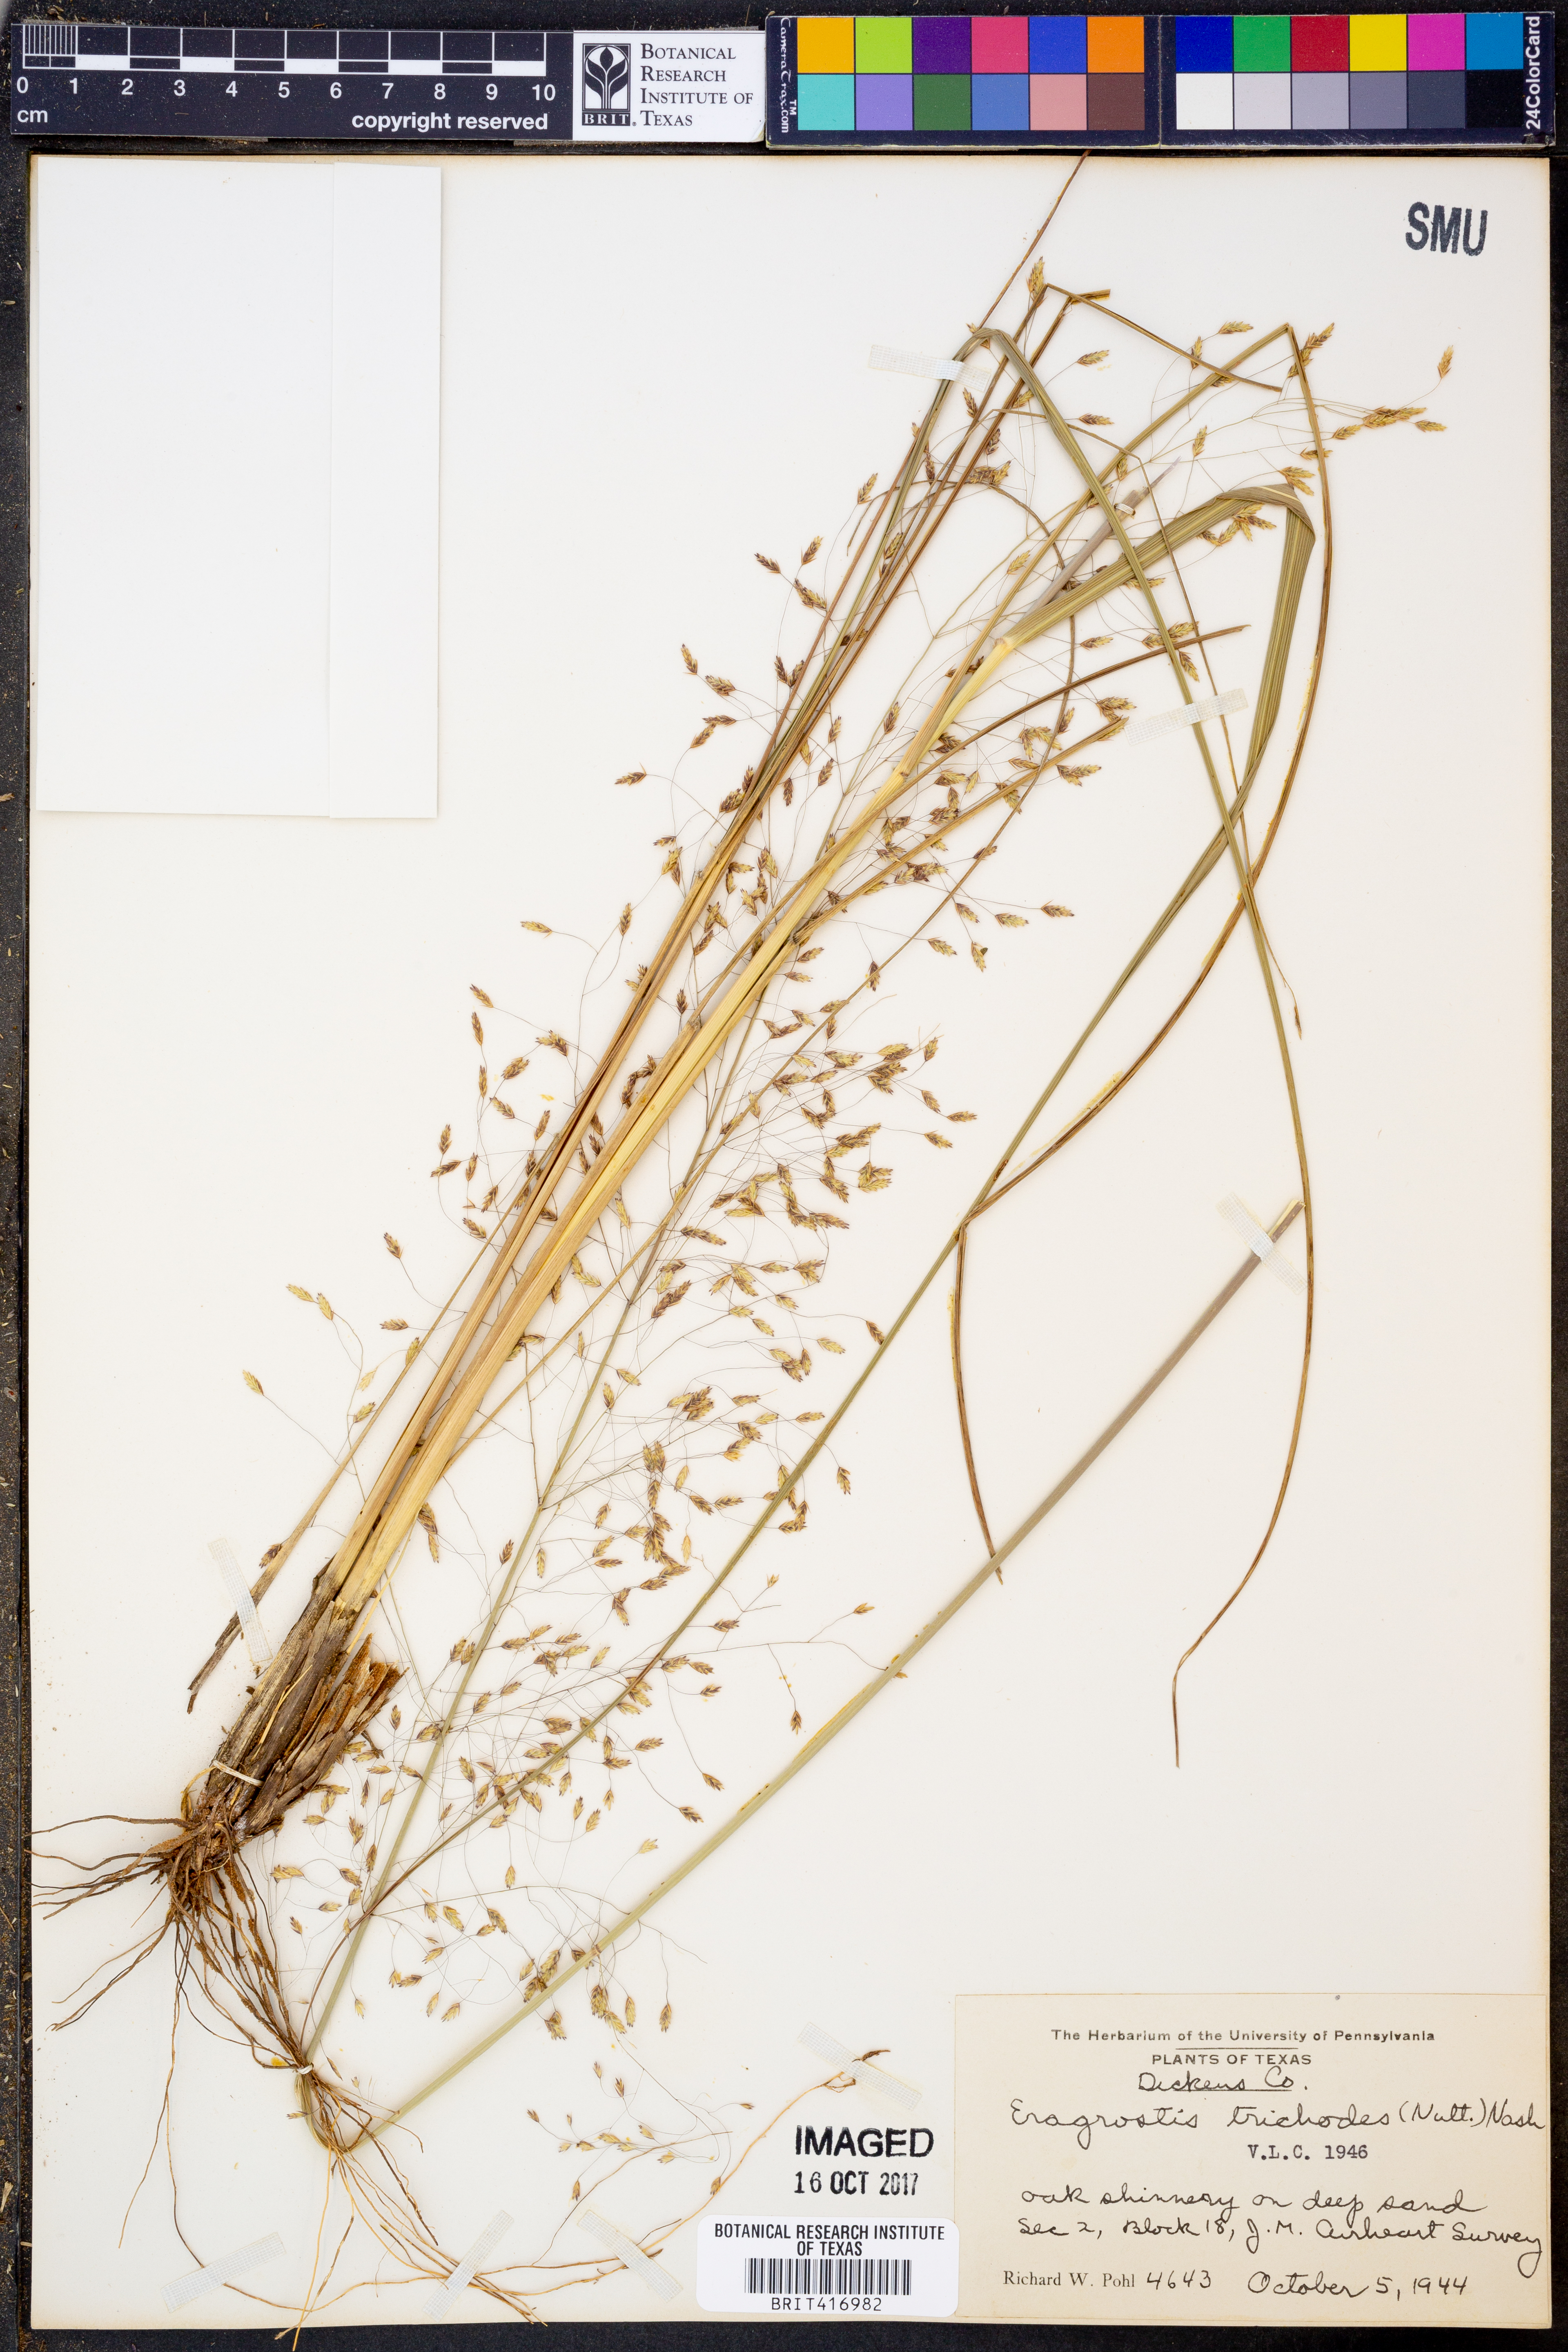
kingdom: Plantae
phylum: Tracheophyta
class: Liliopsida
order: Poales
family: Poaceae
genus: Eragrostis
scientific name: Eragrostis trichodes
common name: Sand love grass
